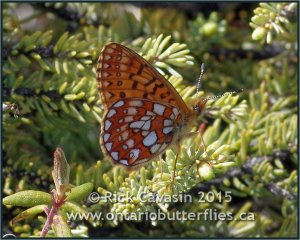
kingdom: Animalia
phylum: Arthropoda
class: Insecta
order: Lepidoptera
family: Nymphalidae
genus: Boloria
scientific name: Boloria eunomia
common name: Bog Fritillary
